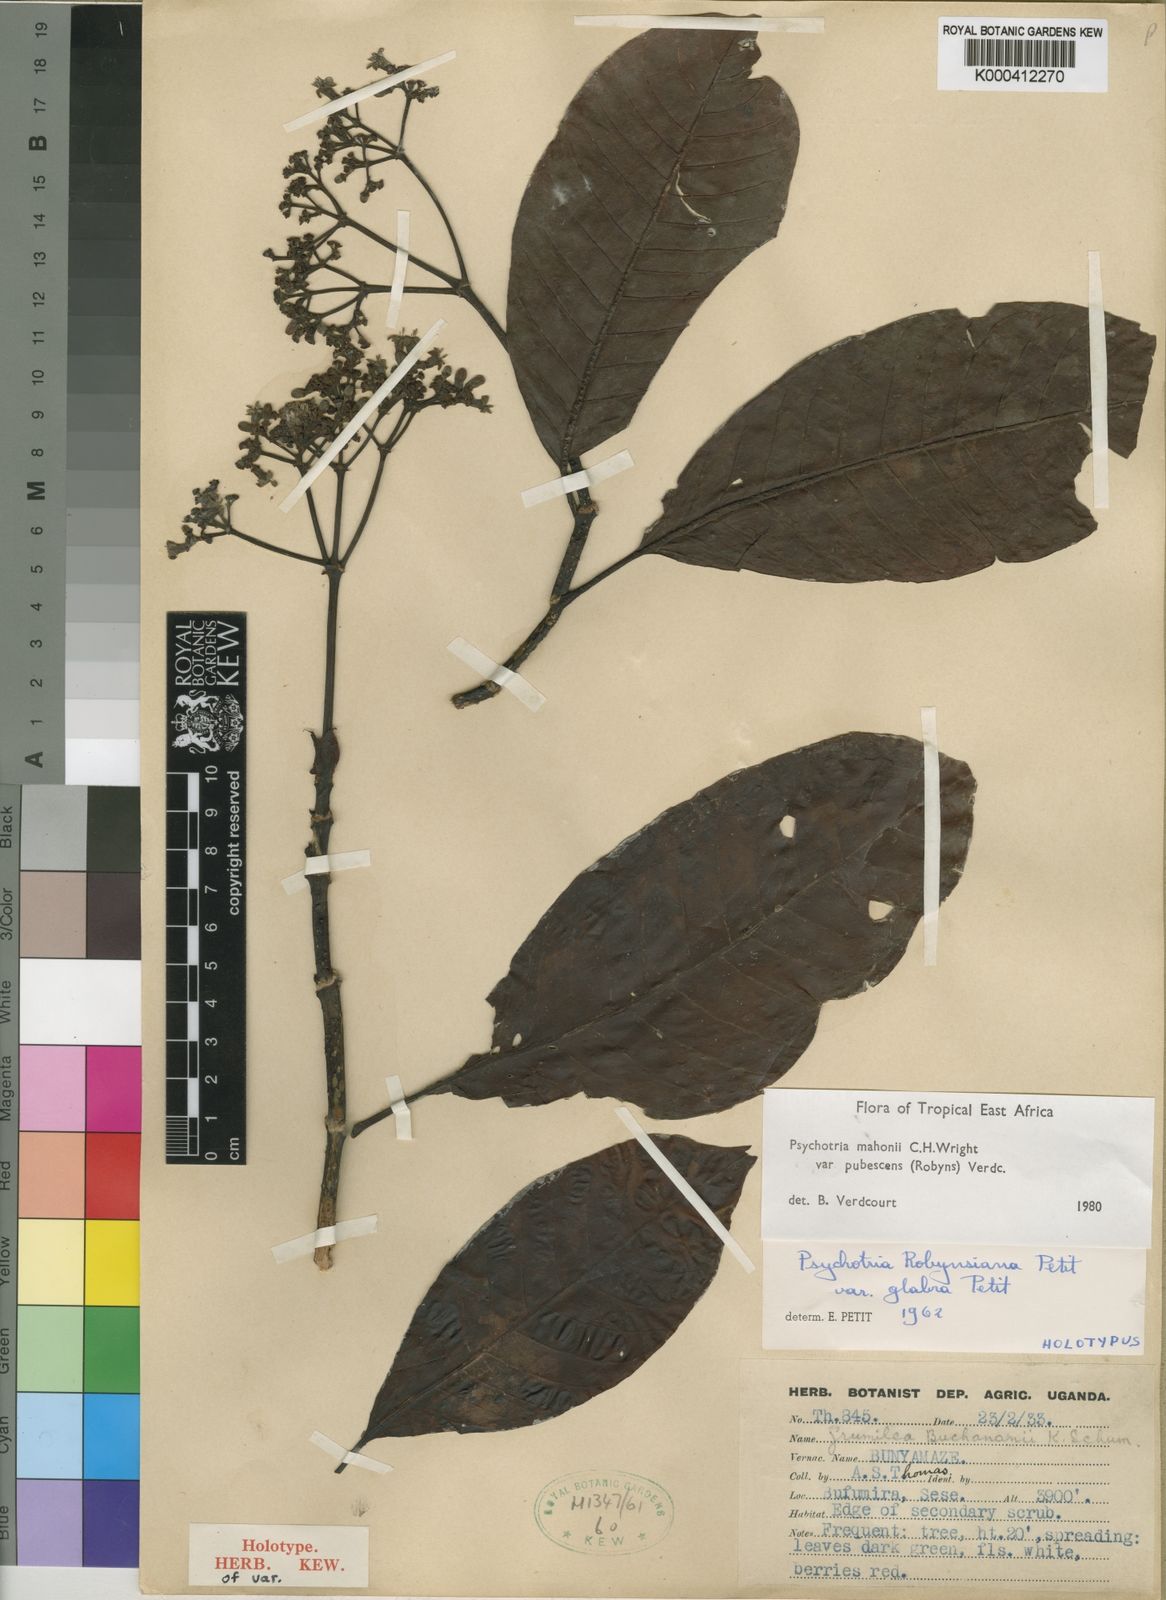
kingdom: Plantae
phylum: Tracheophyta
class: Magnoliopsida
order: Gentianales
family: Rubiaceae
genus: Psychotria
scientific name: Psychotria mahonii
